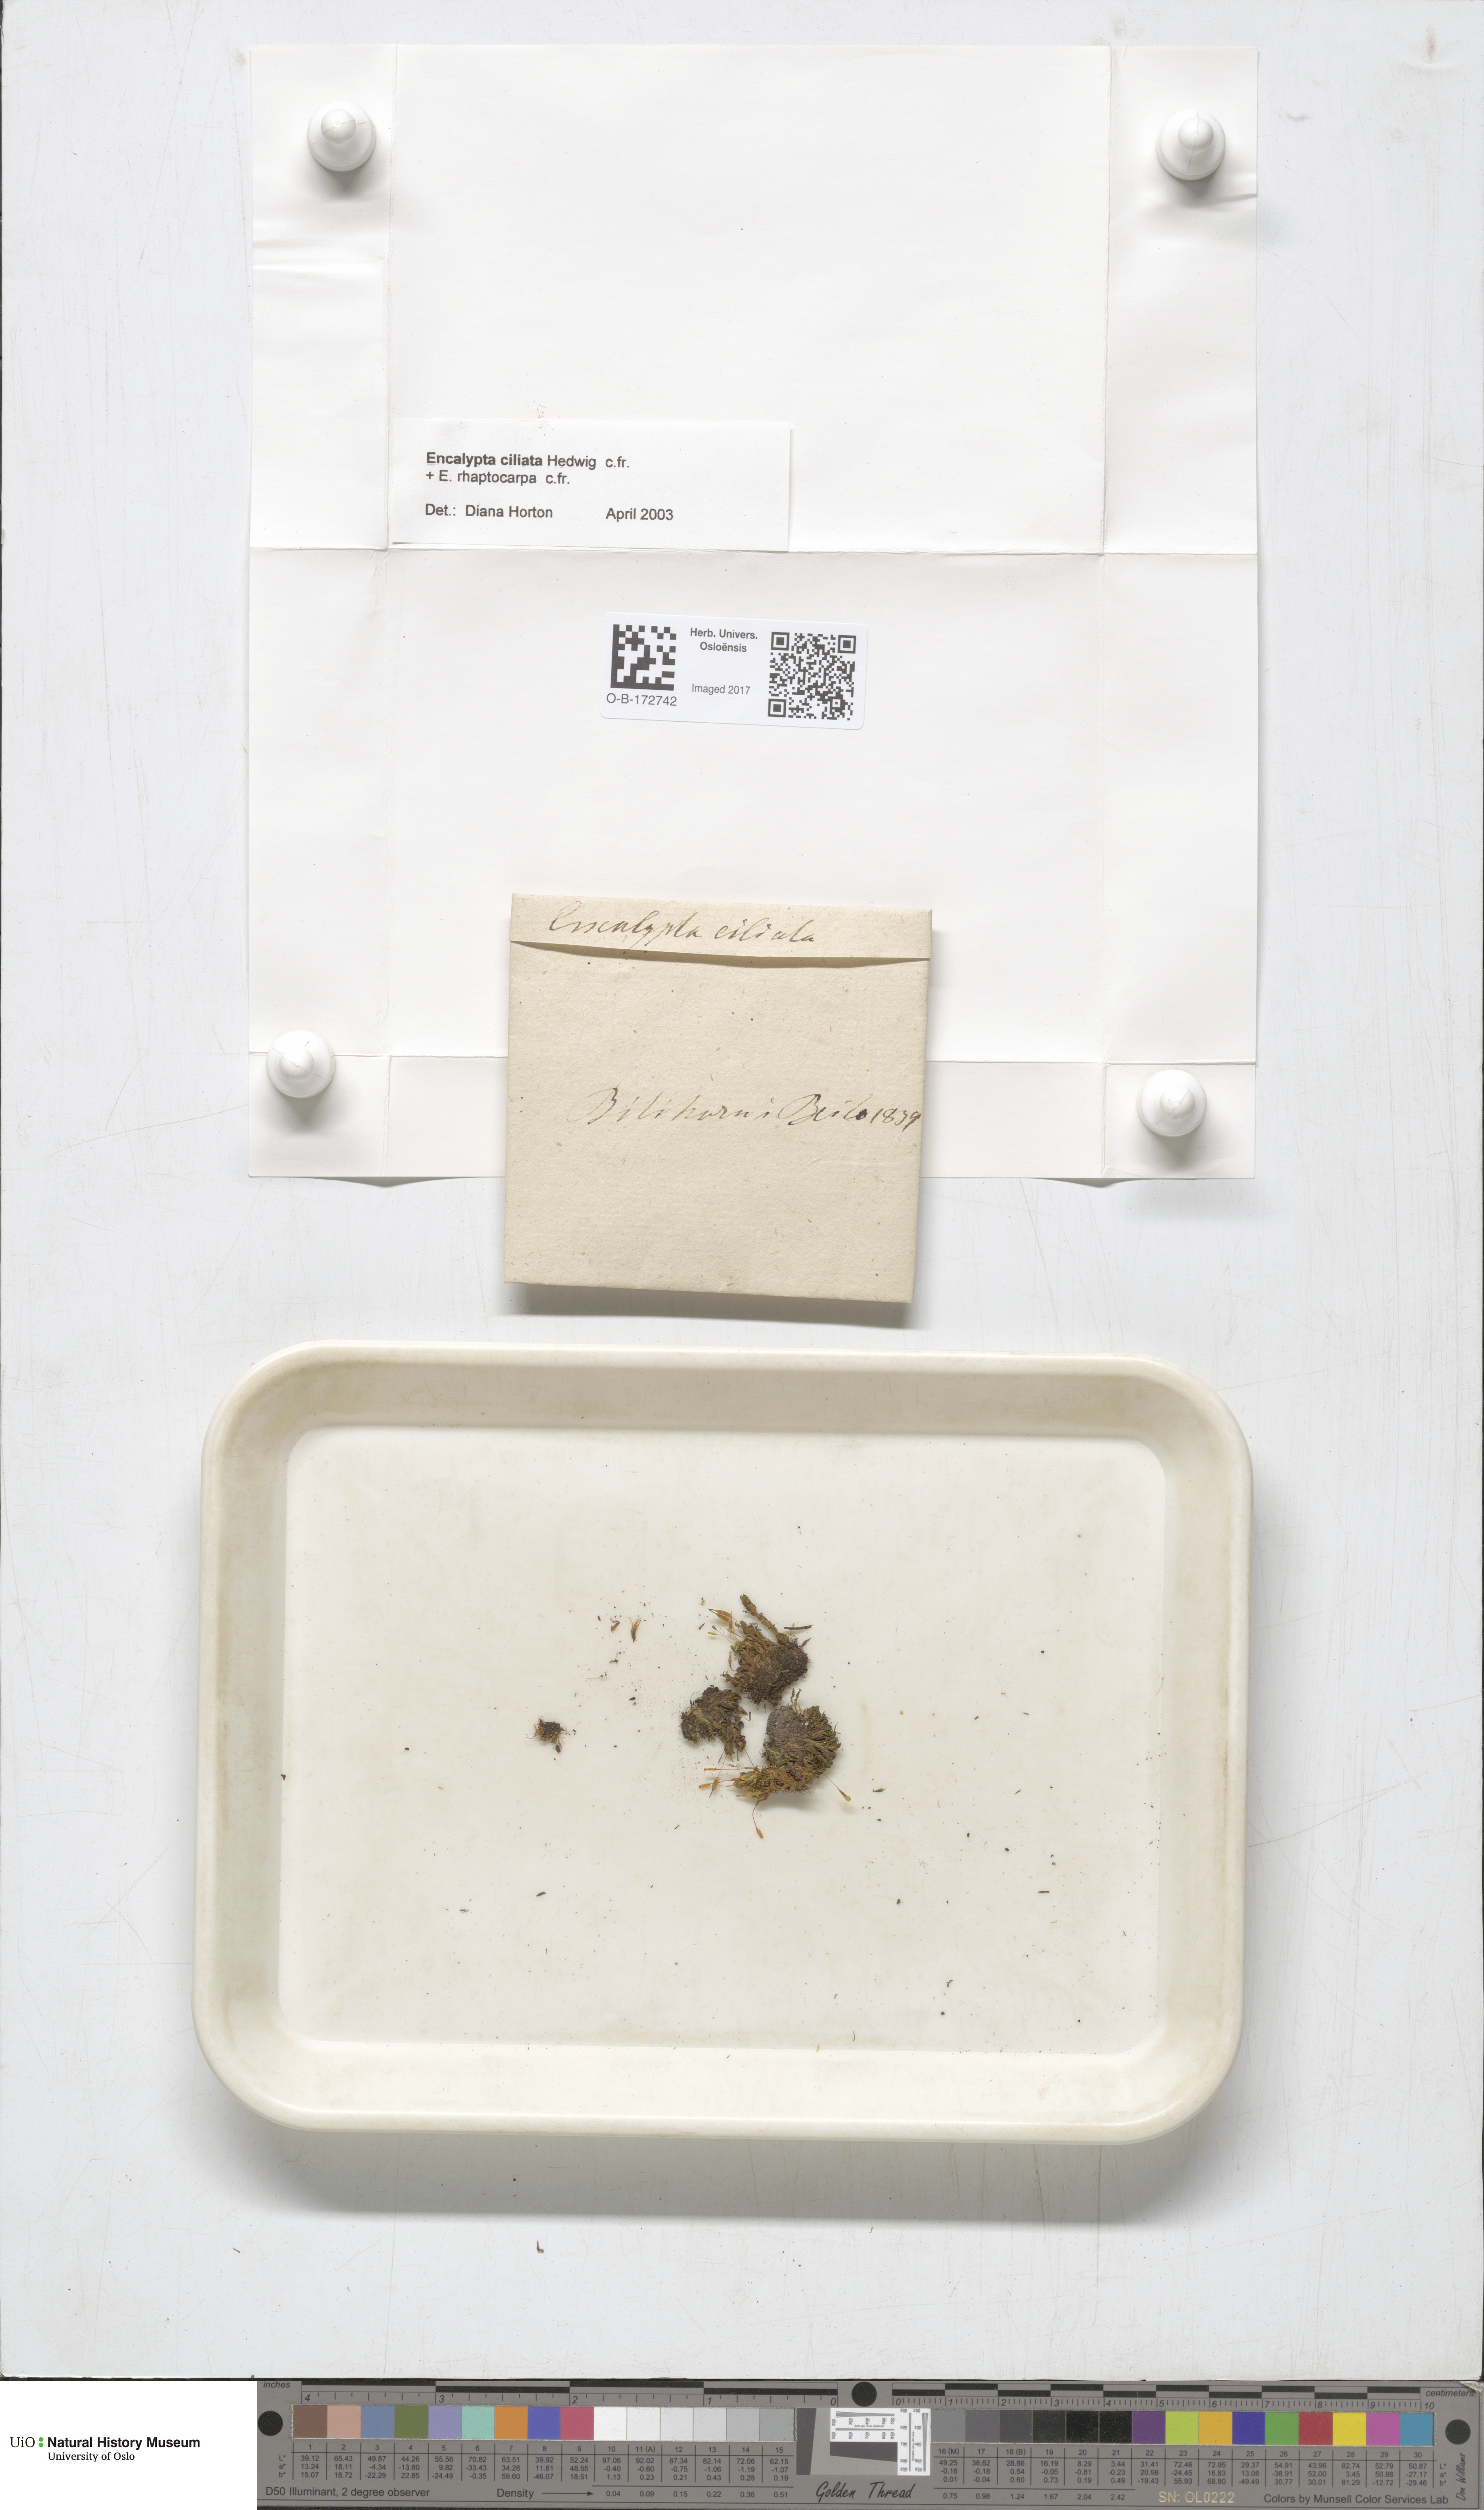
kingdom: Plantae
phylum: Bryophyta
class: Bryopsida
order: Encalyptales
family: Encalyptaceae
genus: Encalypta
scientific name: Encalypta ciliata
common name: Fringed extinguisher-moss
